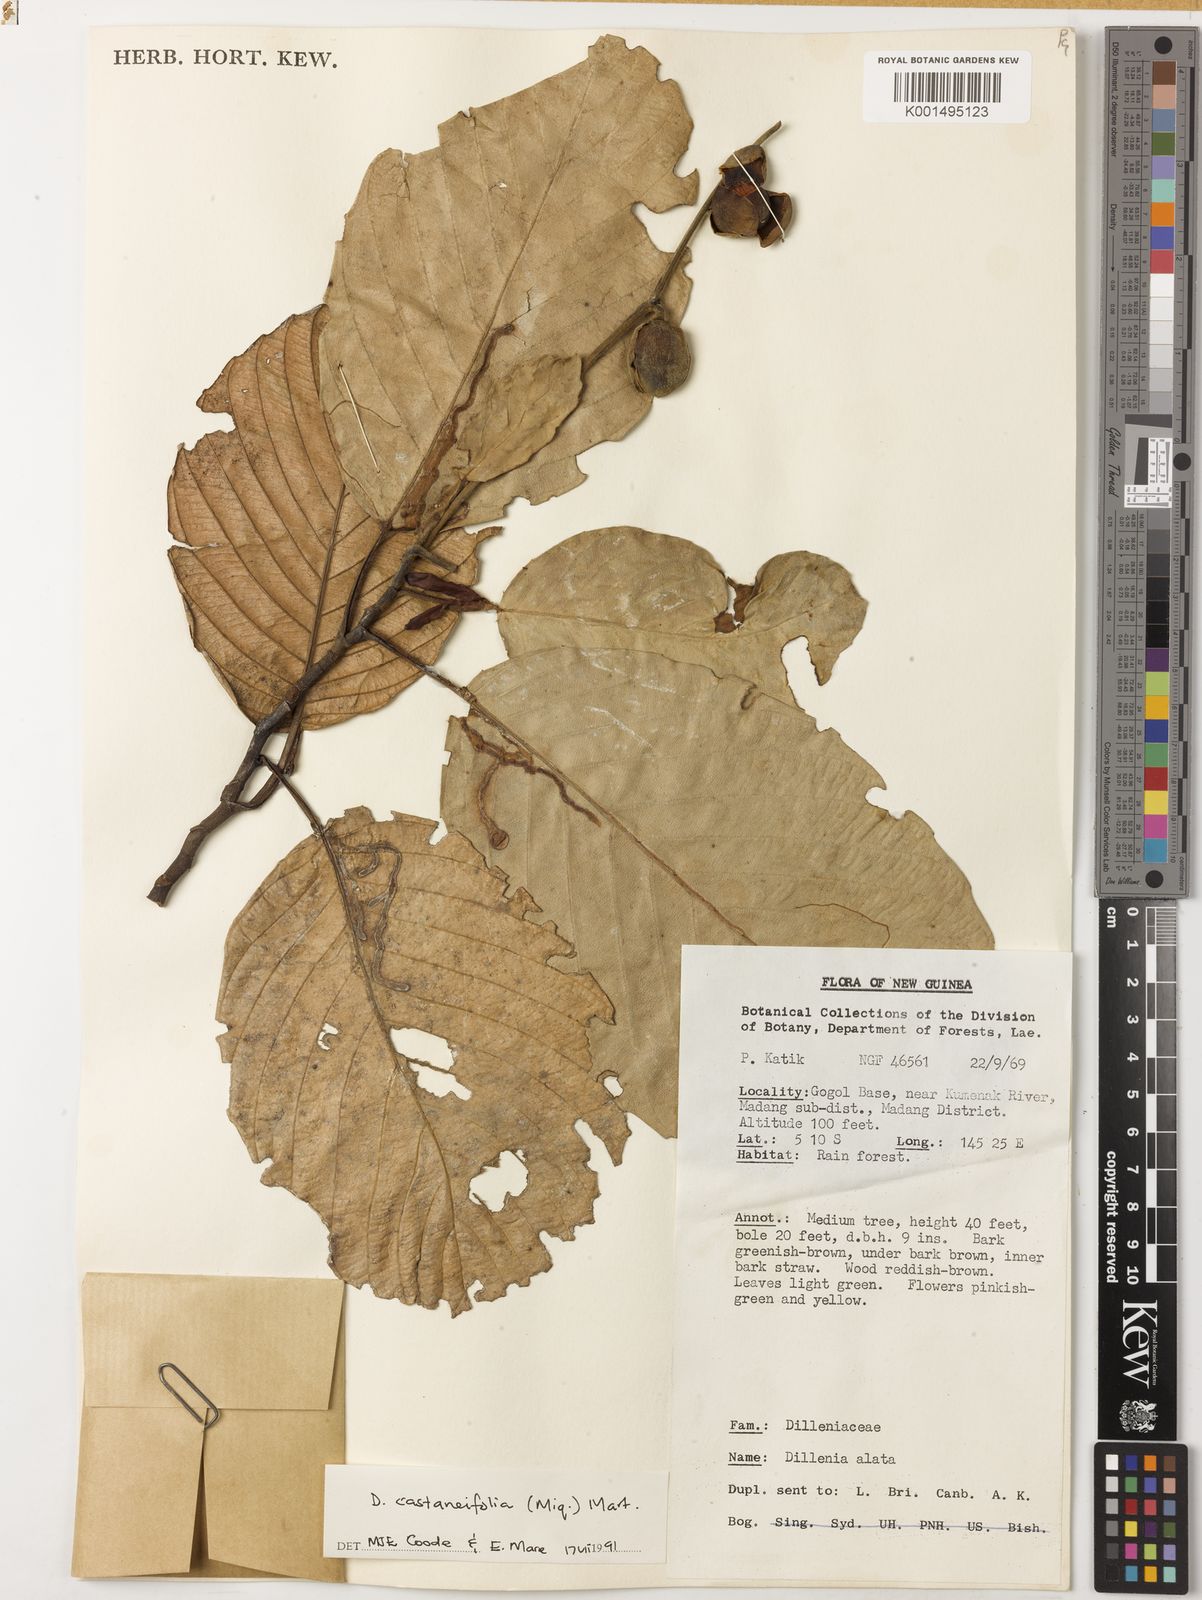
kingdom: Plantae
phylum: Tracheophyta
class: Magnoliopsida
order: Dilleniales
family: Dilleniaceae
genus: Dillenia
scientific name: Dillenia castaneifolia
